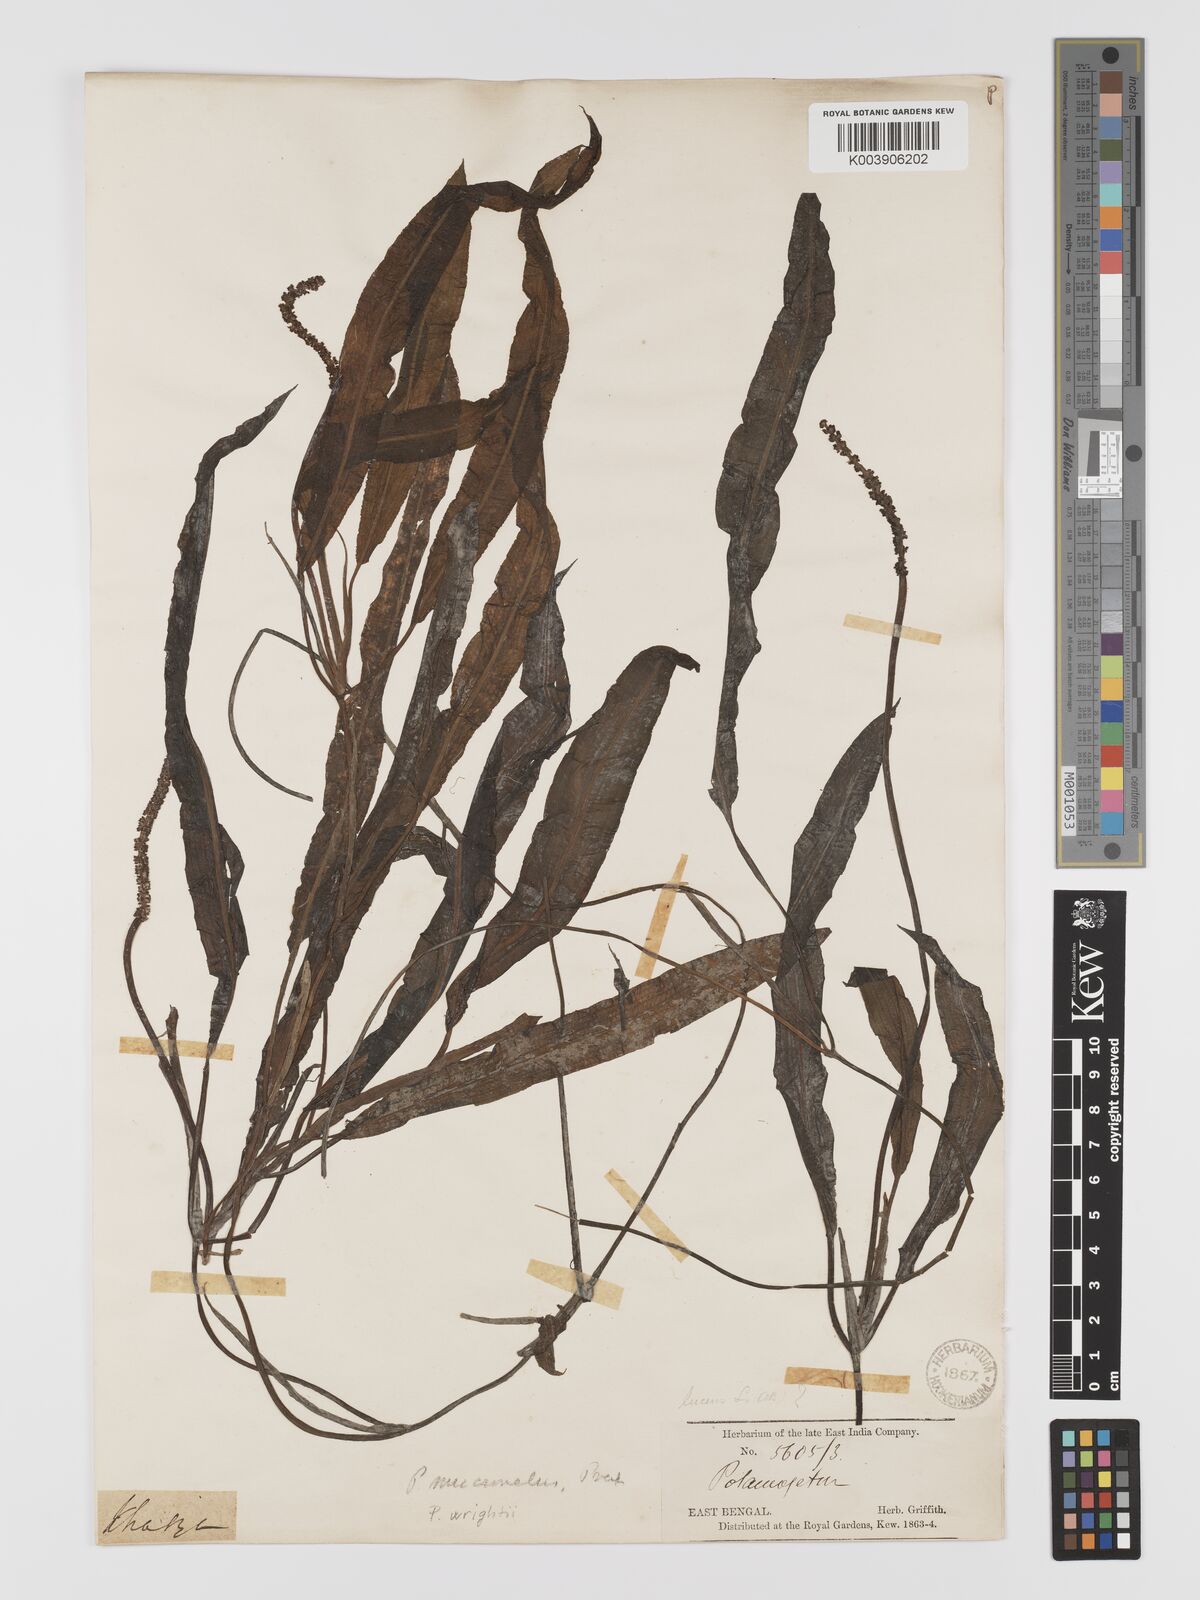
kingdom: Plantae
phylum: Tracheophyta
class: Liliopsida
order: Alismatales
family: Potamogetonaceae
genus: Potamogeton
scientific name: Potamogeton wrightii
